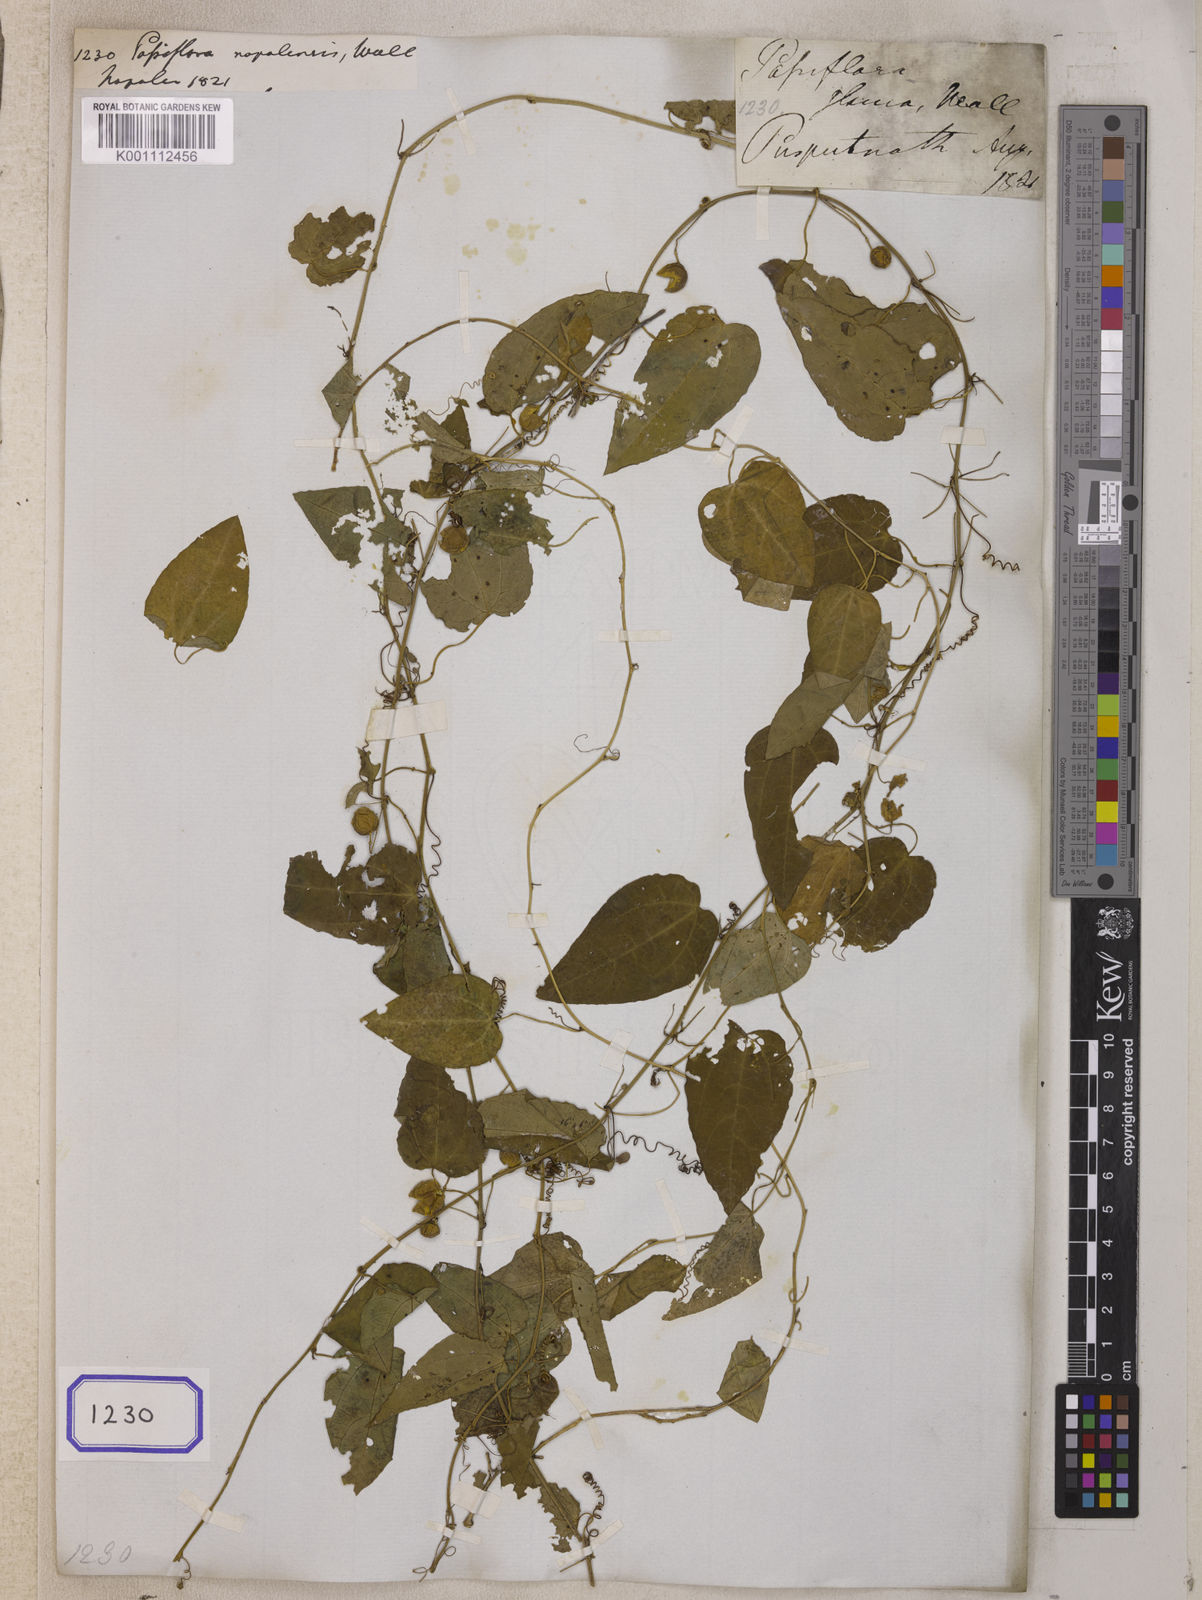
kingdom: Plantae
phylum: Tracheophyta
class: Magnoliopsida
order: Malpighiales
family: Passifloraceae
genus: Passiflora
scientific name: Passiflora napalensis
